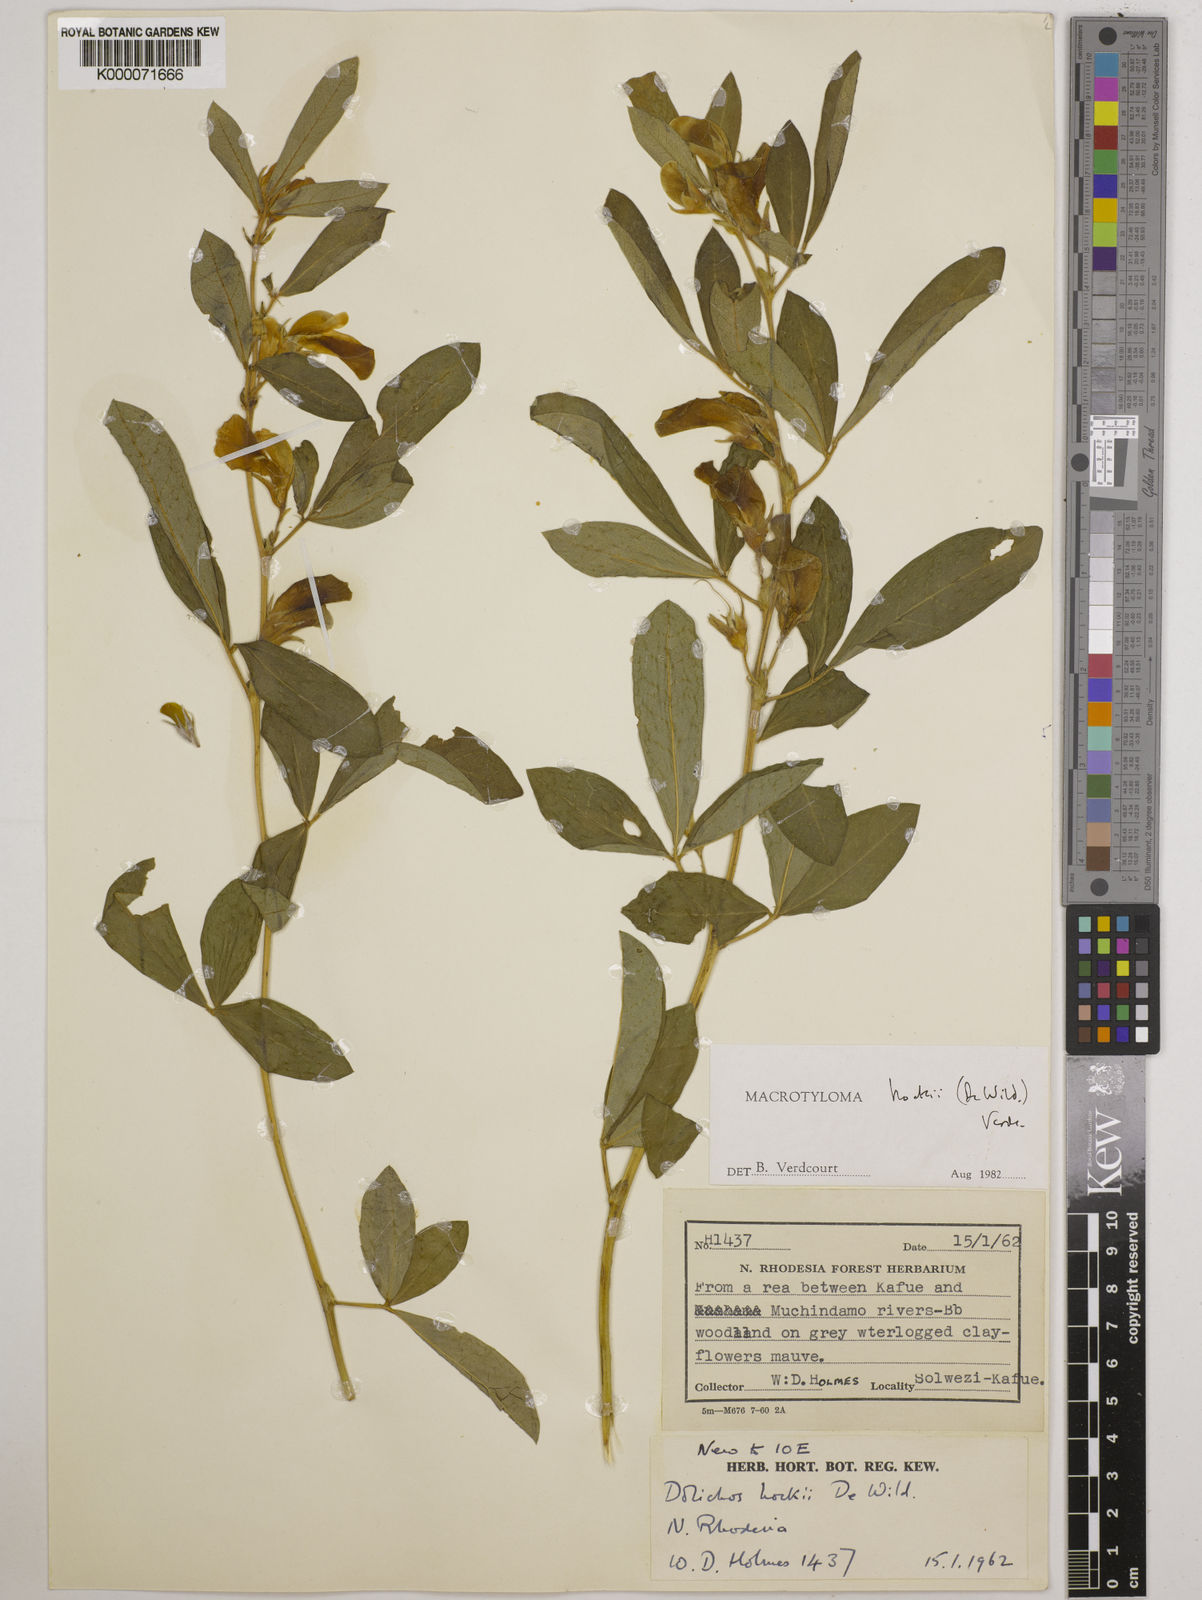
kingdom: Plantae
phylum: Tracheophyta
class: Magnoliopsida
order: Fabales
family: Fabaceae
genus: Macrotyloma
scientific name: Macrotyloma hockii
